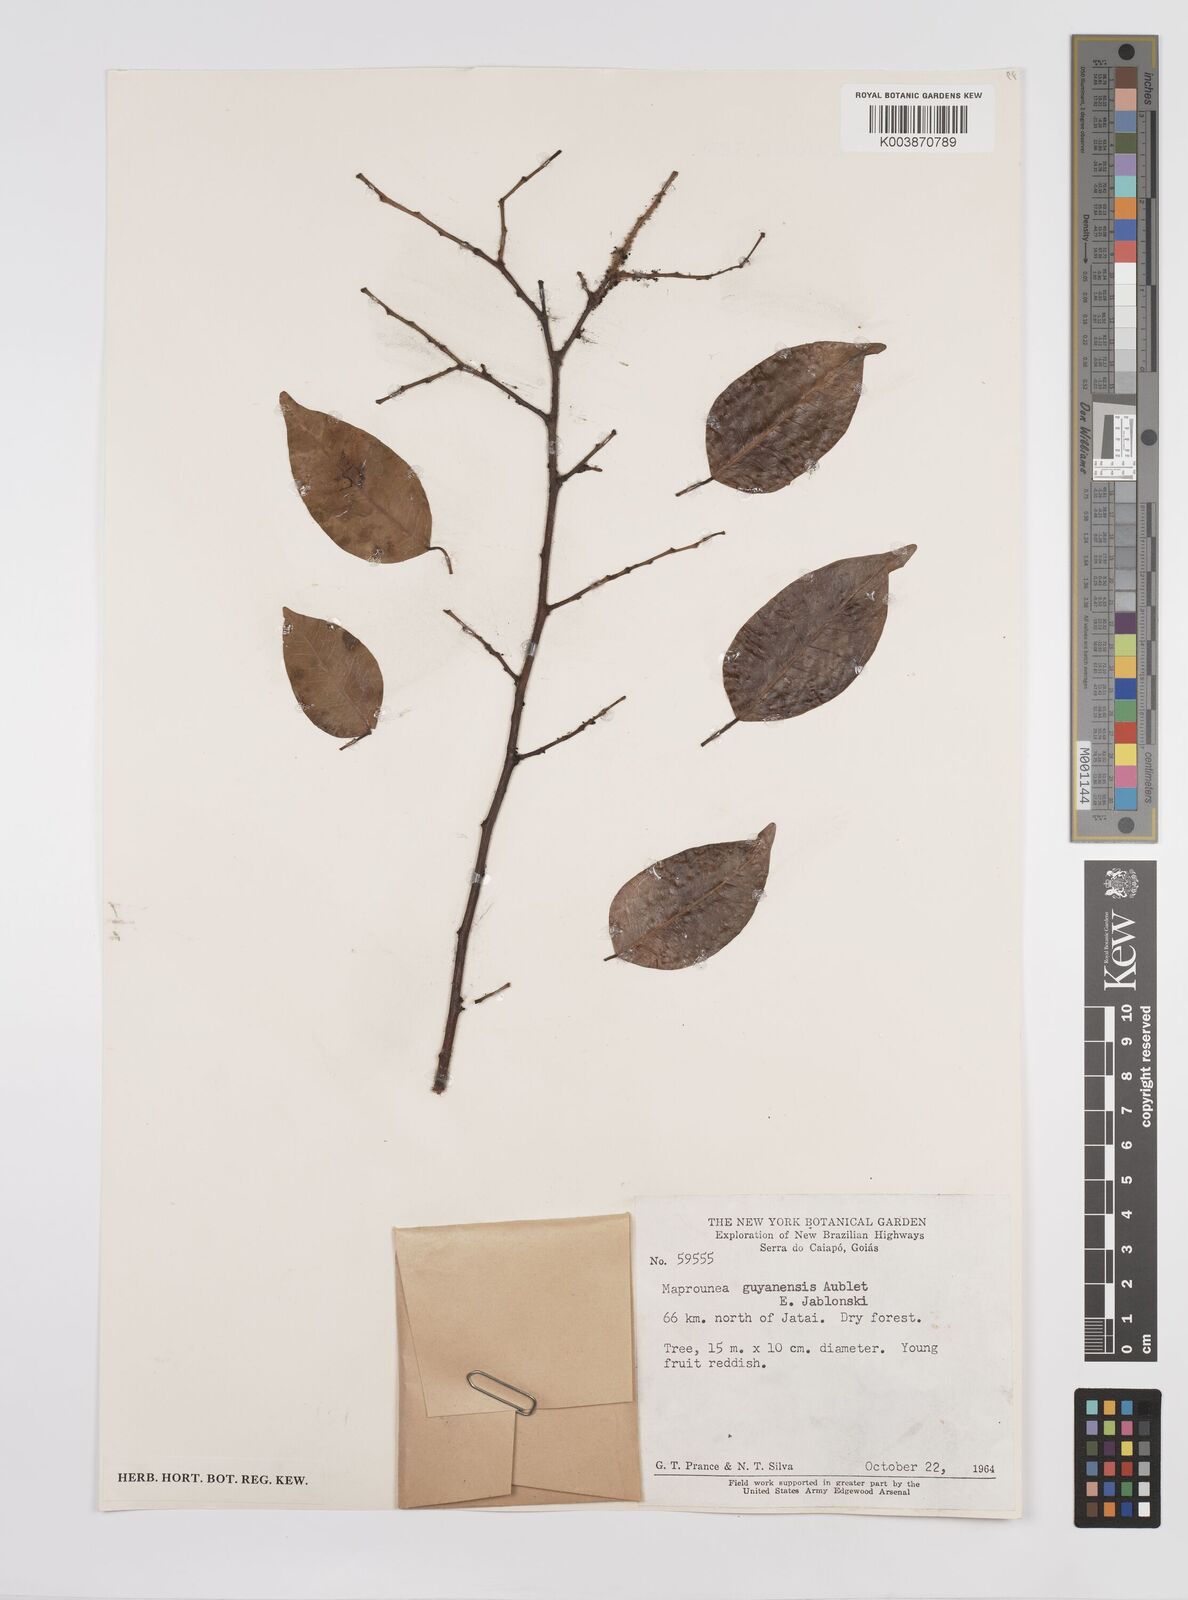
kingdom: Plantae
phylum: Tracheophyta
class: Magnoliopsida
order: Malpighiales
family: Euphorbiaceae
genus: Maprounea
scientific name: Maprounea guianensis
